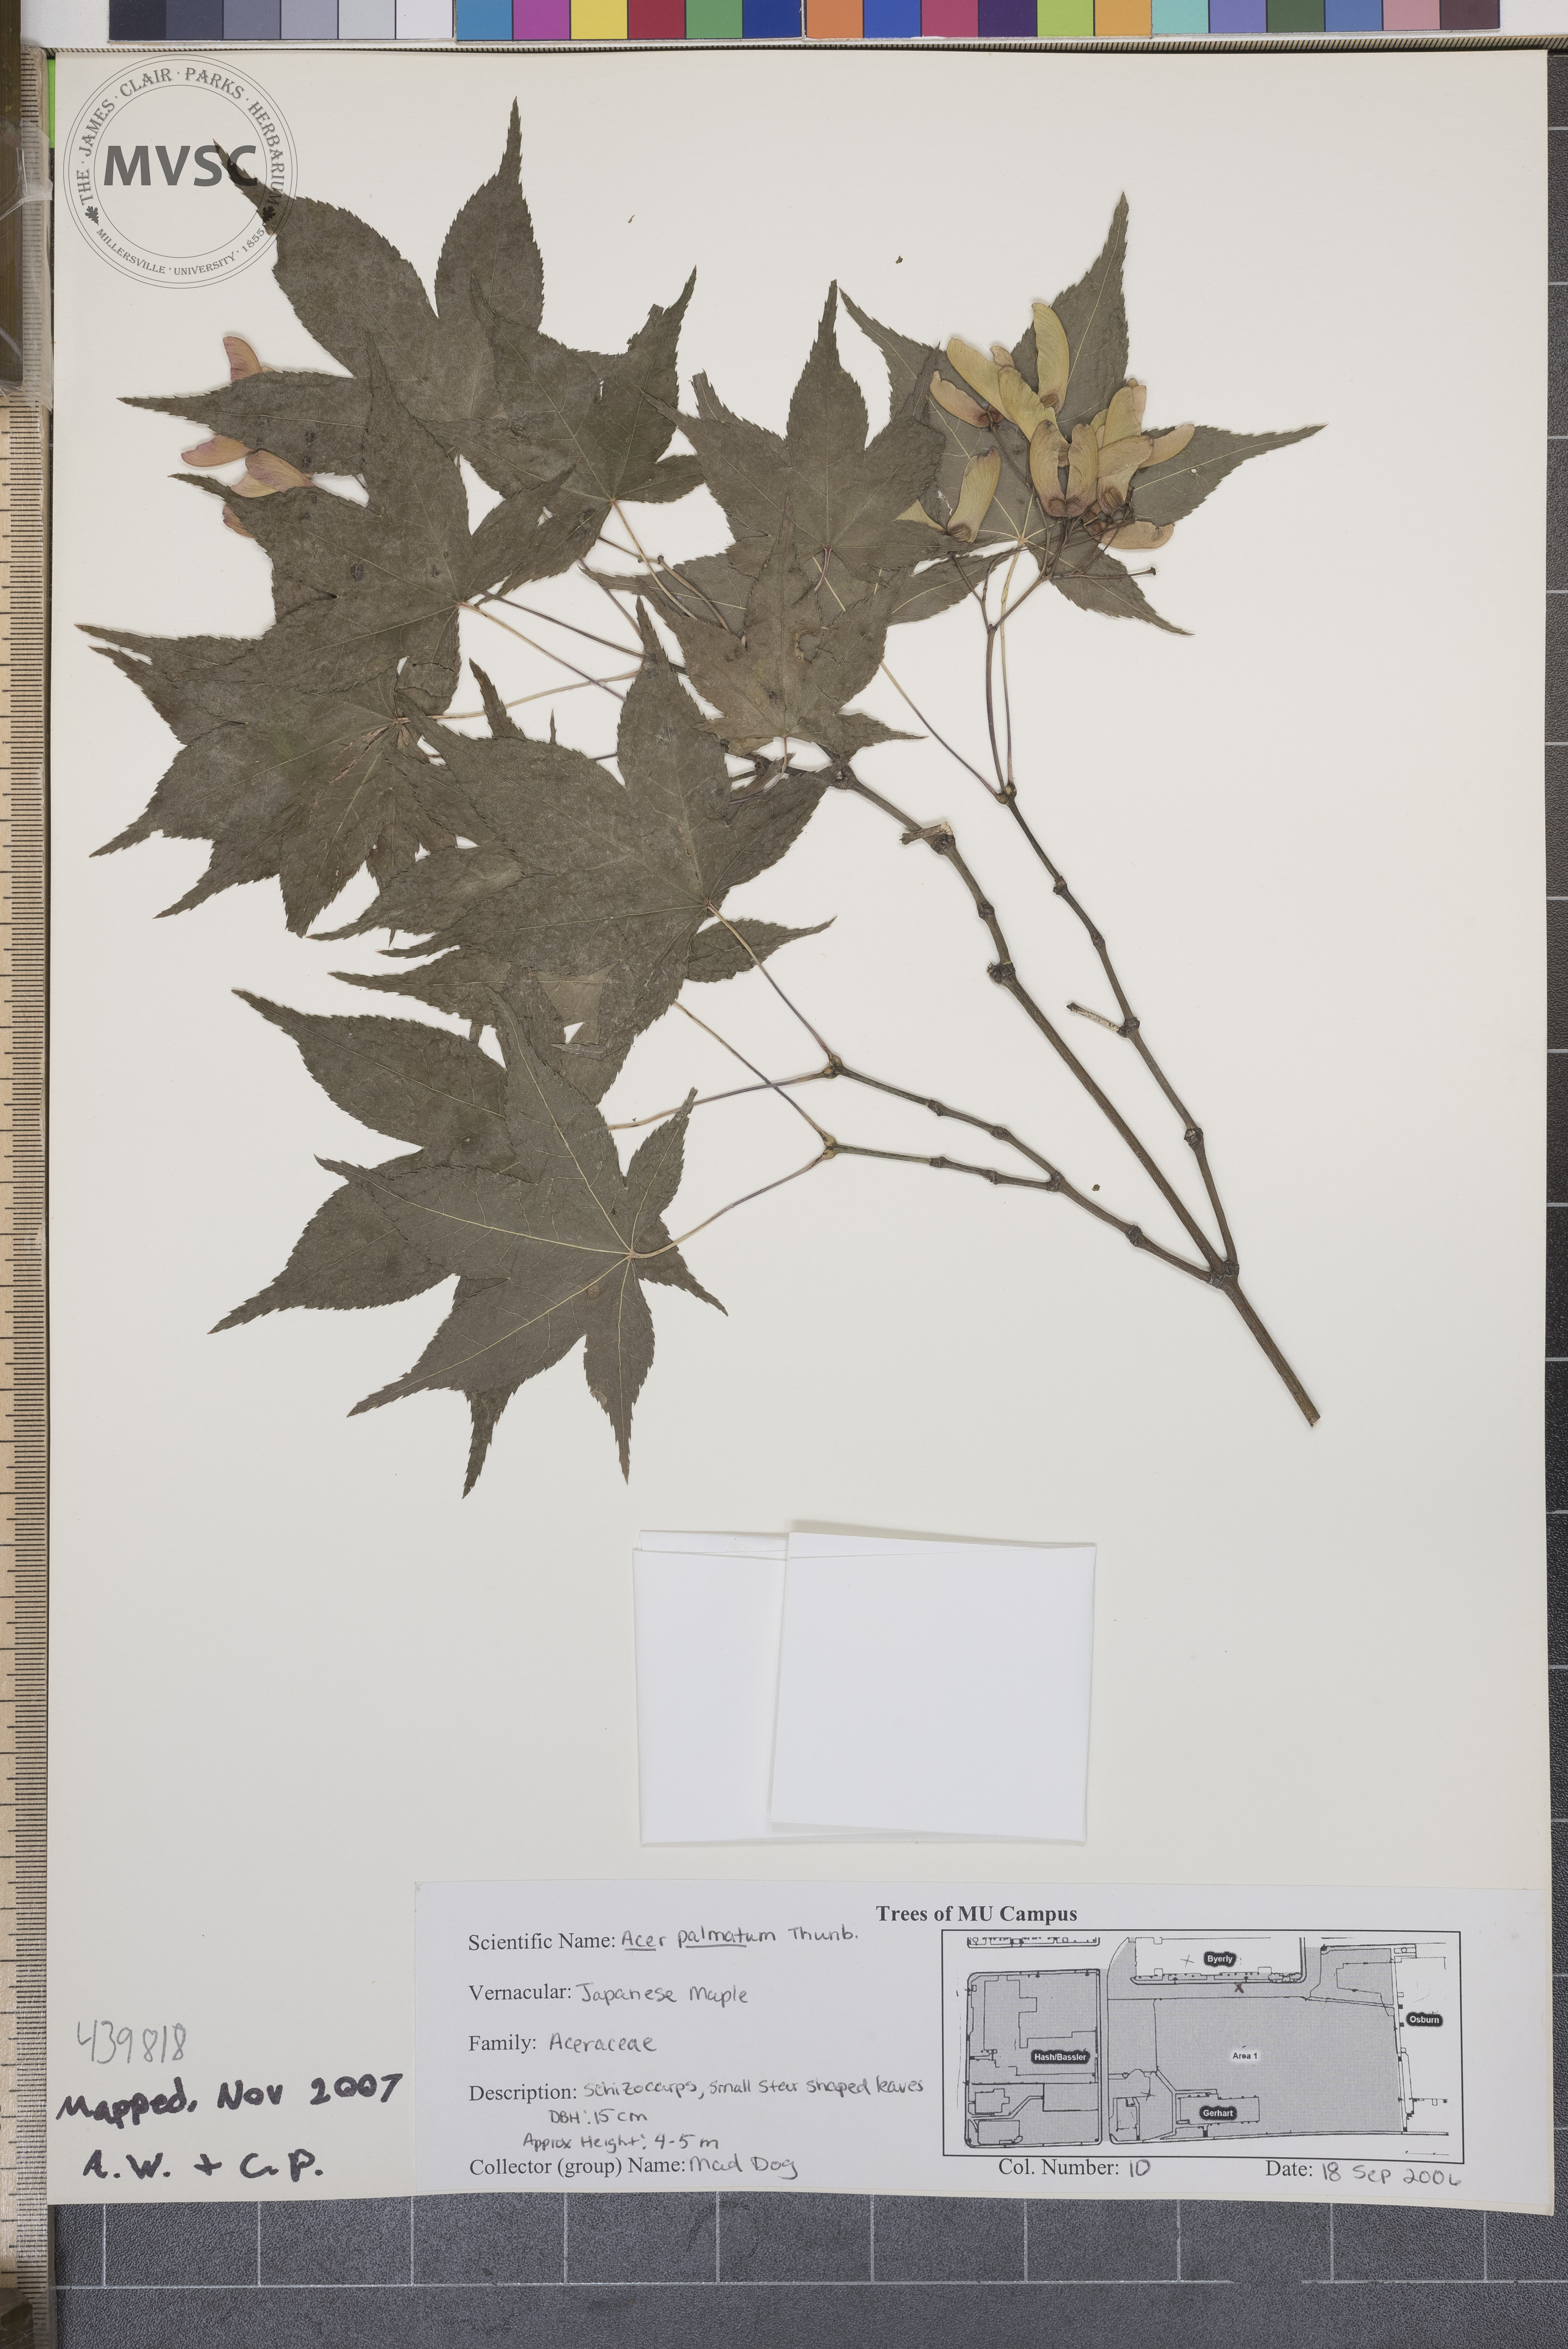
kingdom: Plantae
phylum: Tracheophyta
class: Magnoliopsida
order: Sapindales
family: Sapindaceae
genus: Acer
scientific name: Acer palmatum
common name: Japanese maple
